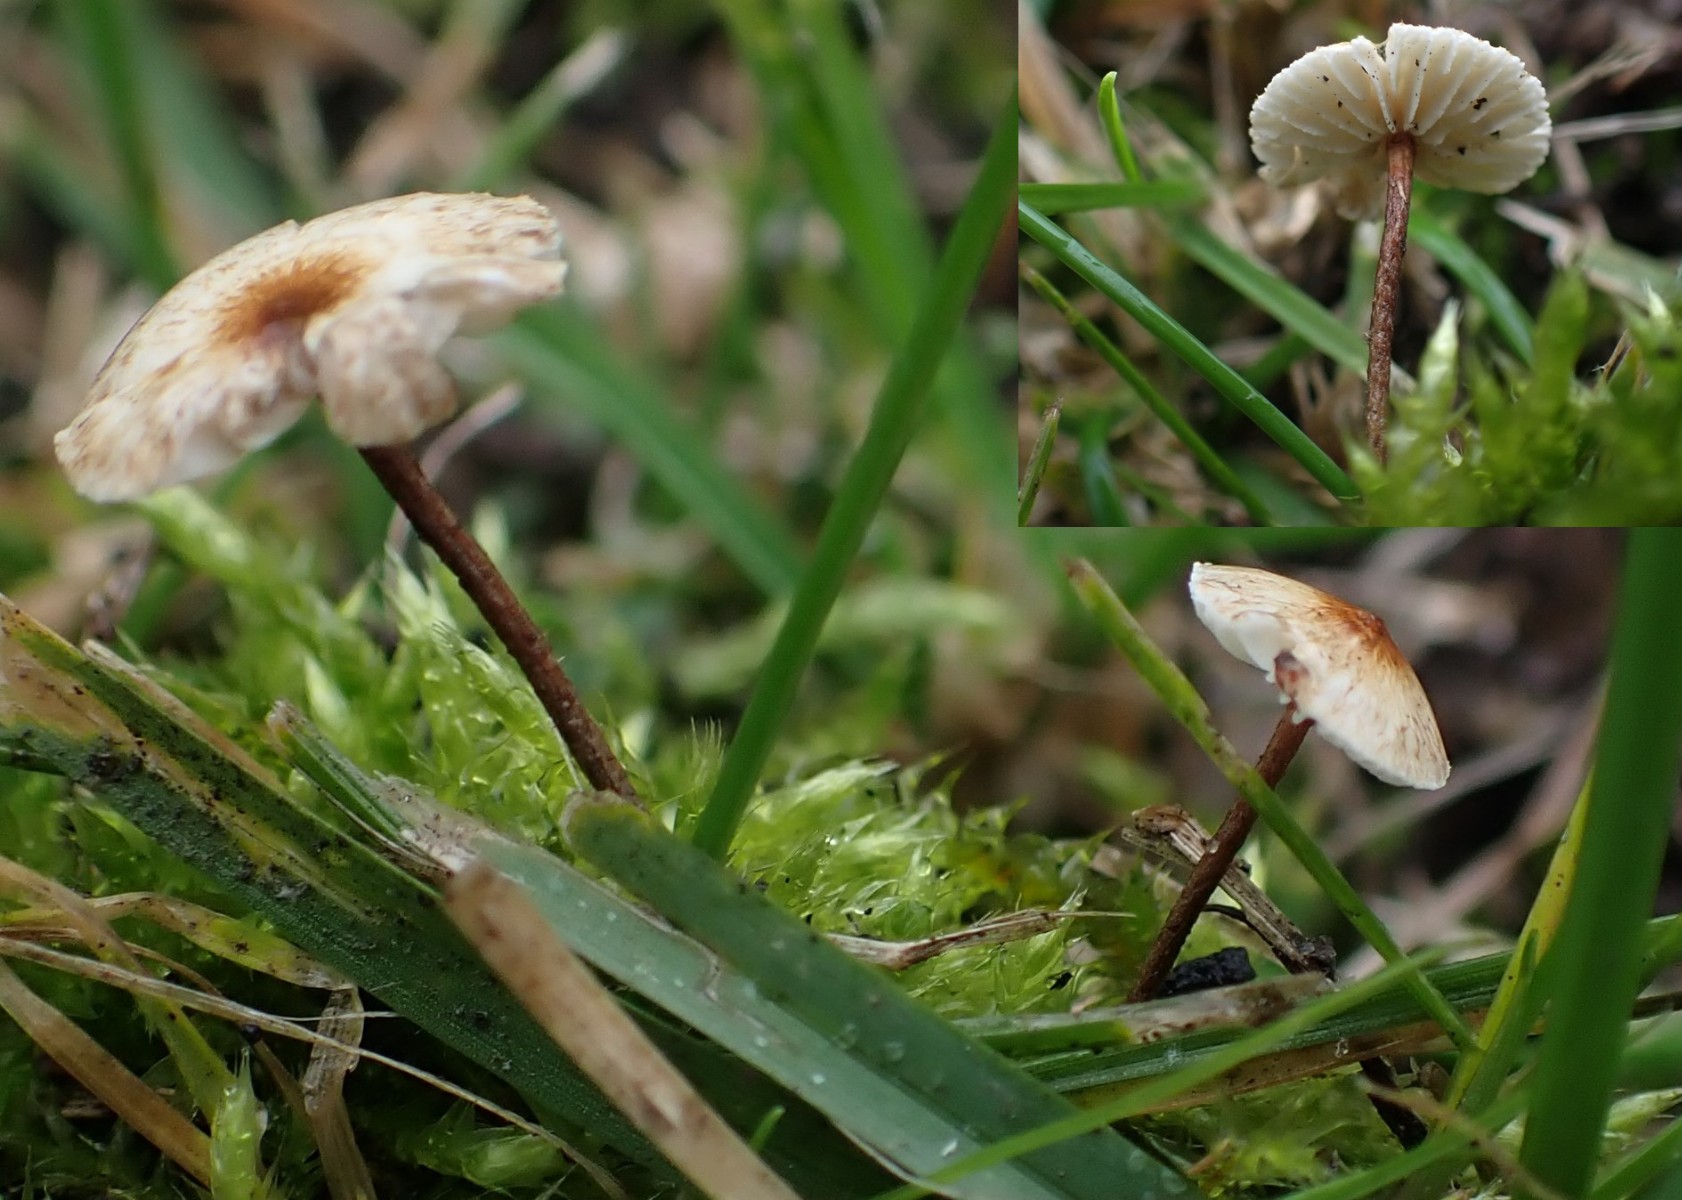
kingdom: Fungi
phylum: Basidiomycota
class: Agaricomycetes
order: Agaricales
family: Marasmiaceae
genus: Crinipellis
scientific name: Crinipellis scabella
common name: børstefod
